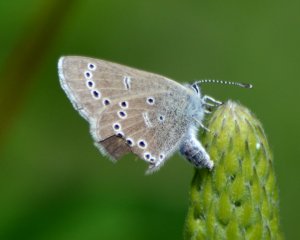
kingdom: Animalia
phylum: Arthropoda
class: Insecta
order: Lepidoptera
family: Lycaenidae
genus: Glaucopsyche
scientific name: Glaucopsyche lygdamus
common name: Silvery Blue
